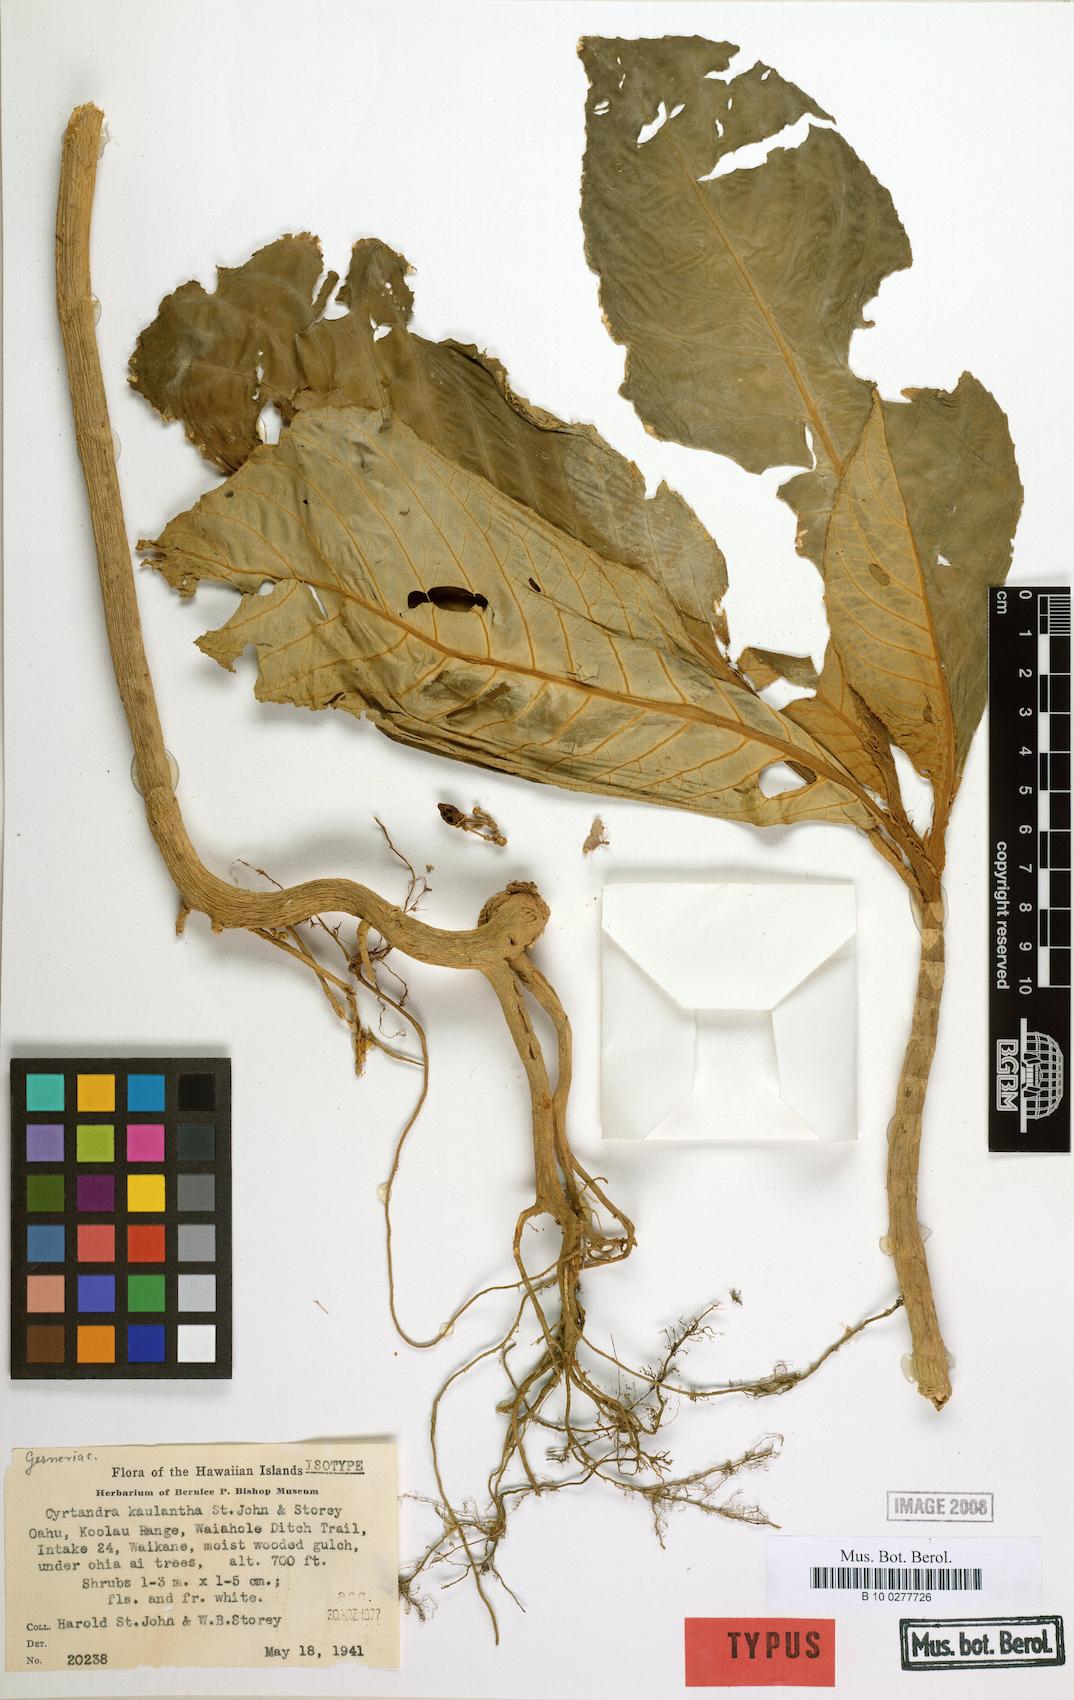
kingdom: Plantae
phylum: Tracheophyta
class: Magnoliopsida
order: Lamiales
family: Gesneriaceae
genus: Cyrtandra
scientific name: Cyrtandra kaulantha
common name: Waikane valley cyrtandra
